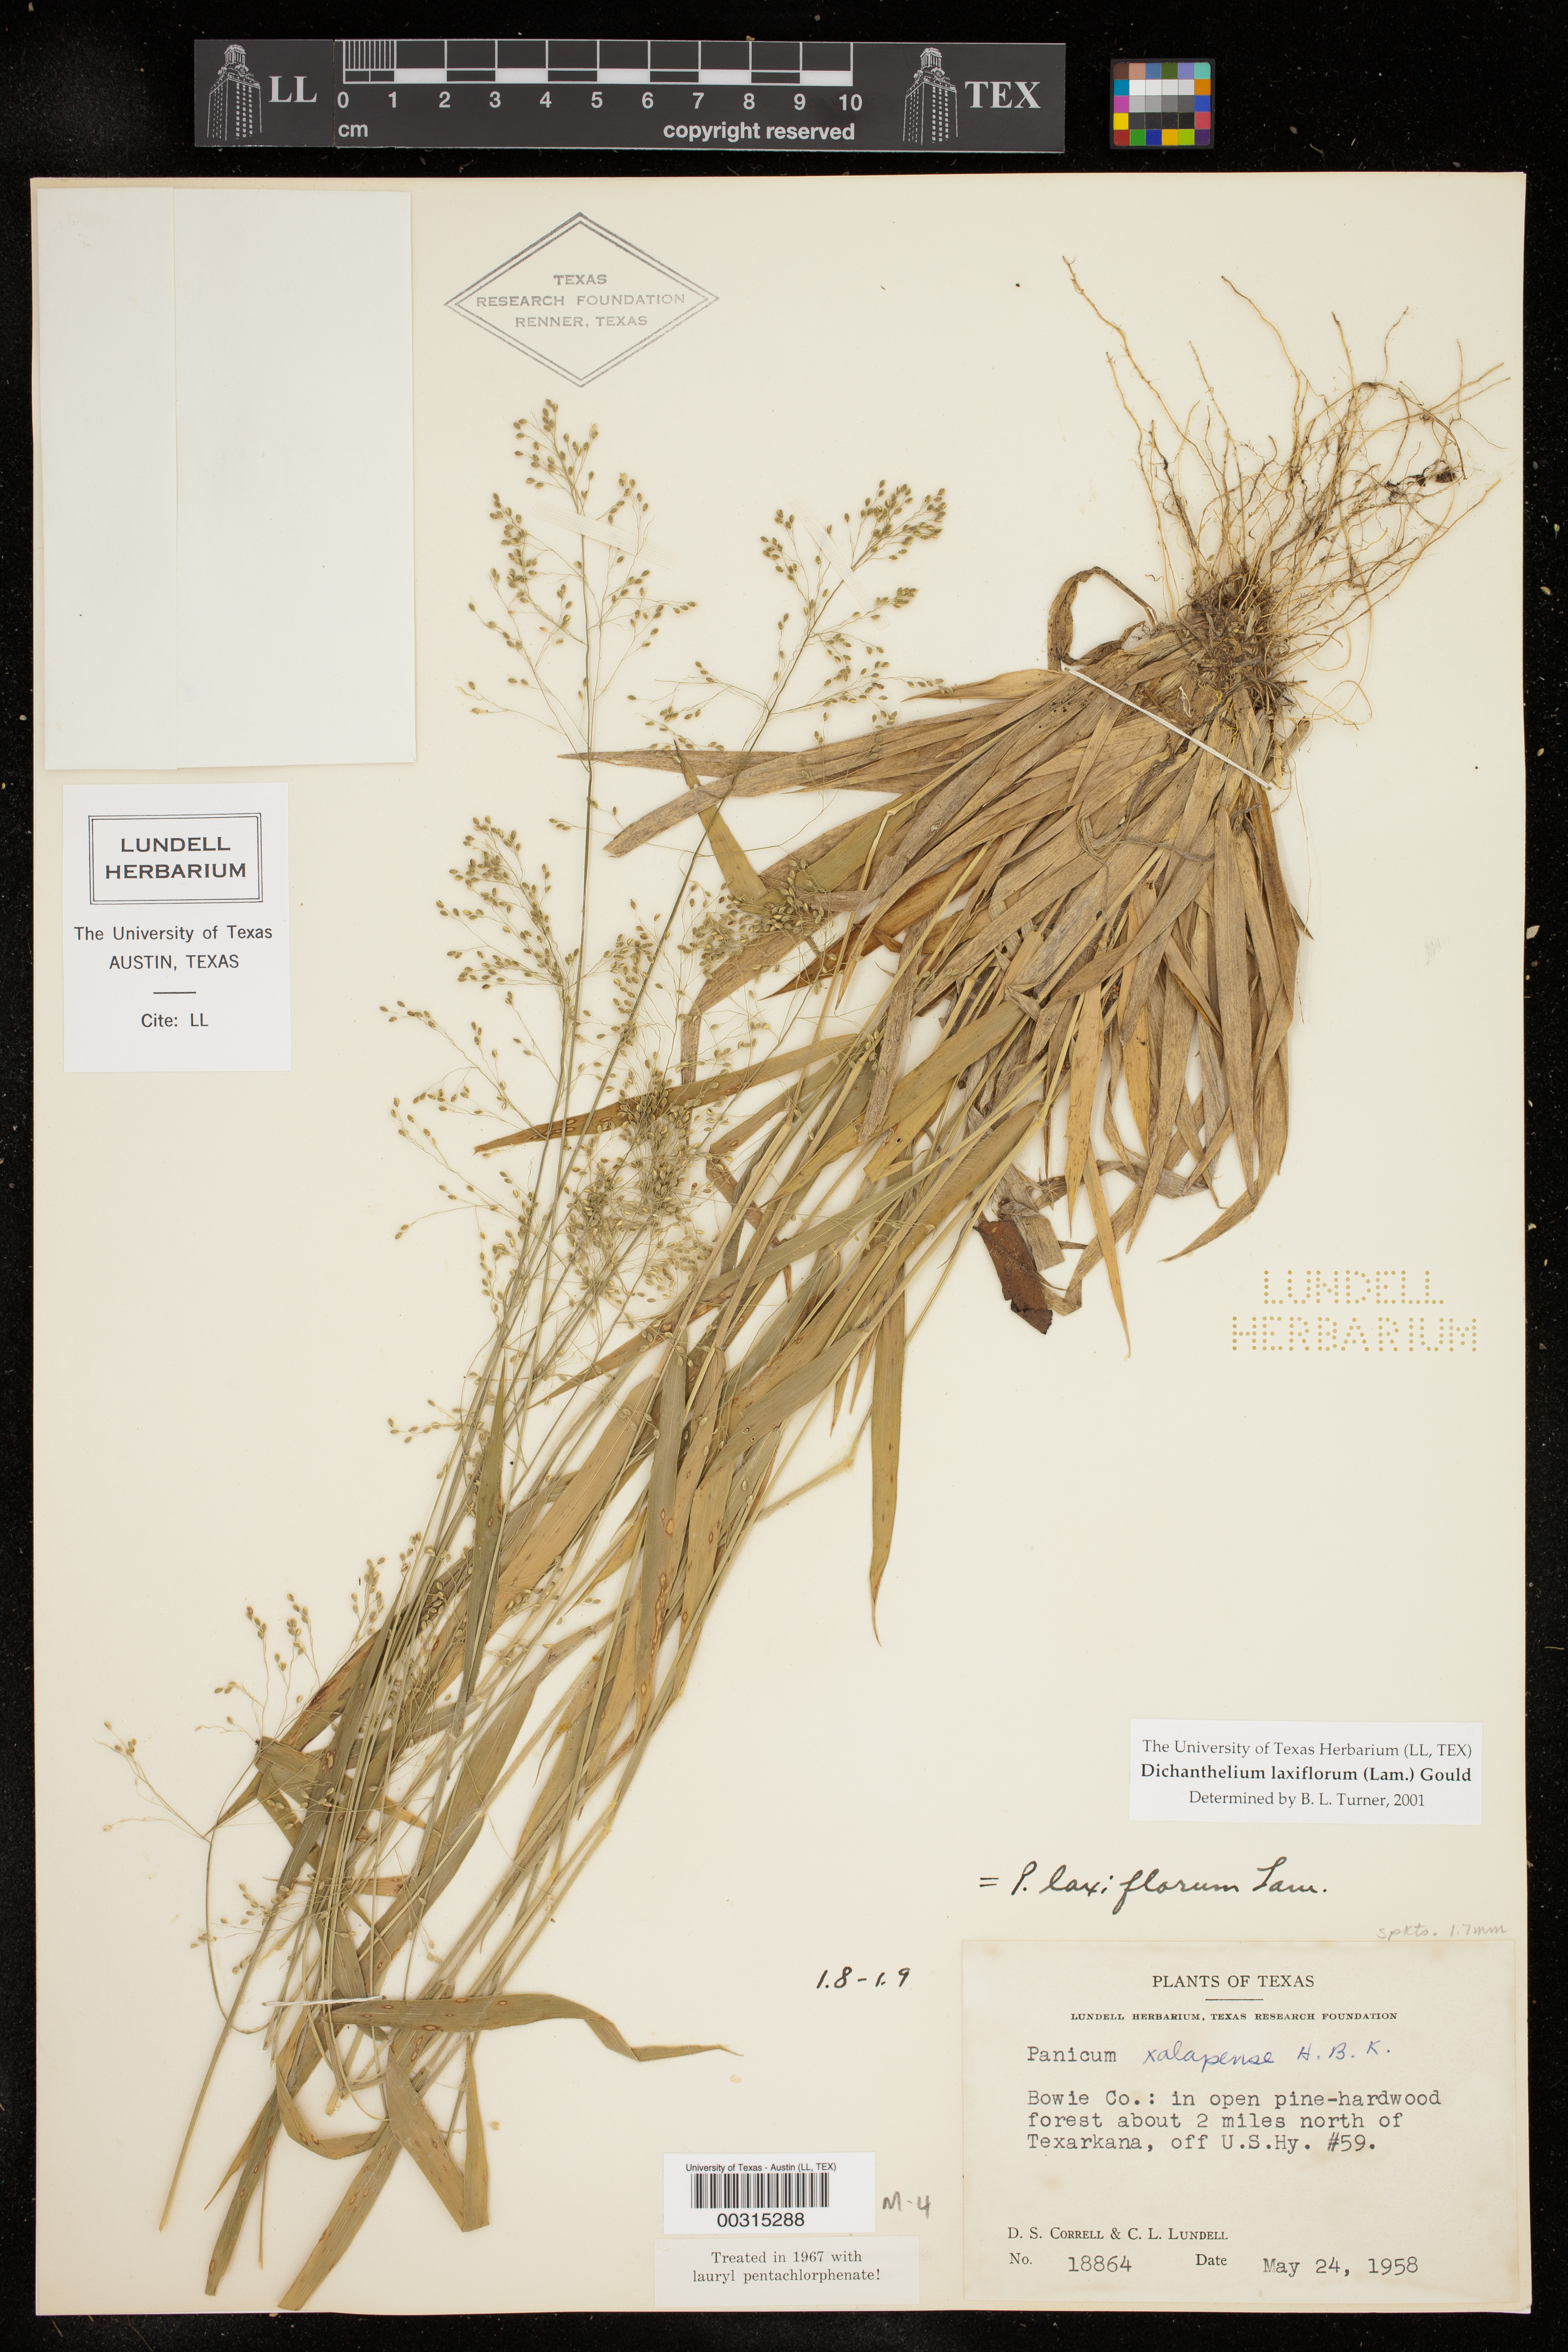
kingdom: Plantae
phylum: Tracheophyta
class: Liliopsida
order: Poales
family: Poaceae
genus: Dichanthelium
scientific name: Dichanthelium laxiflorum
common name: Soft-tuft panic grass
